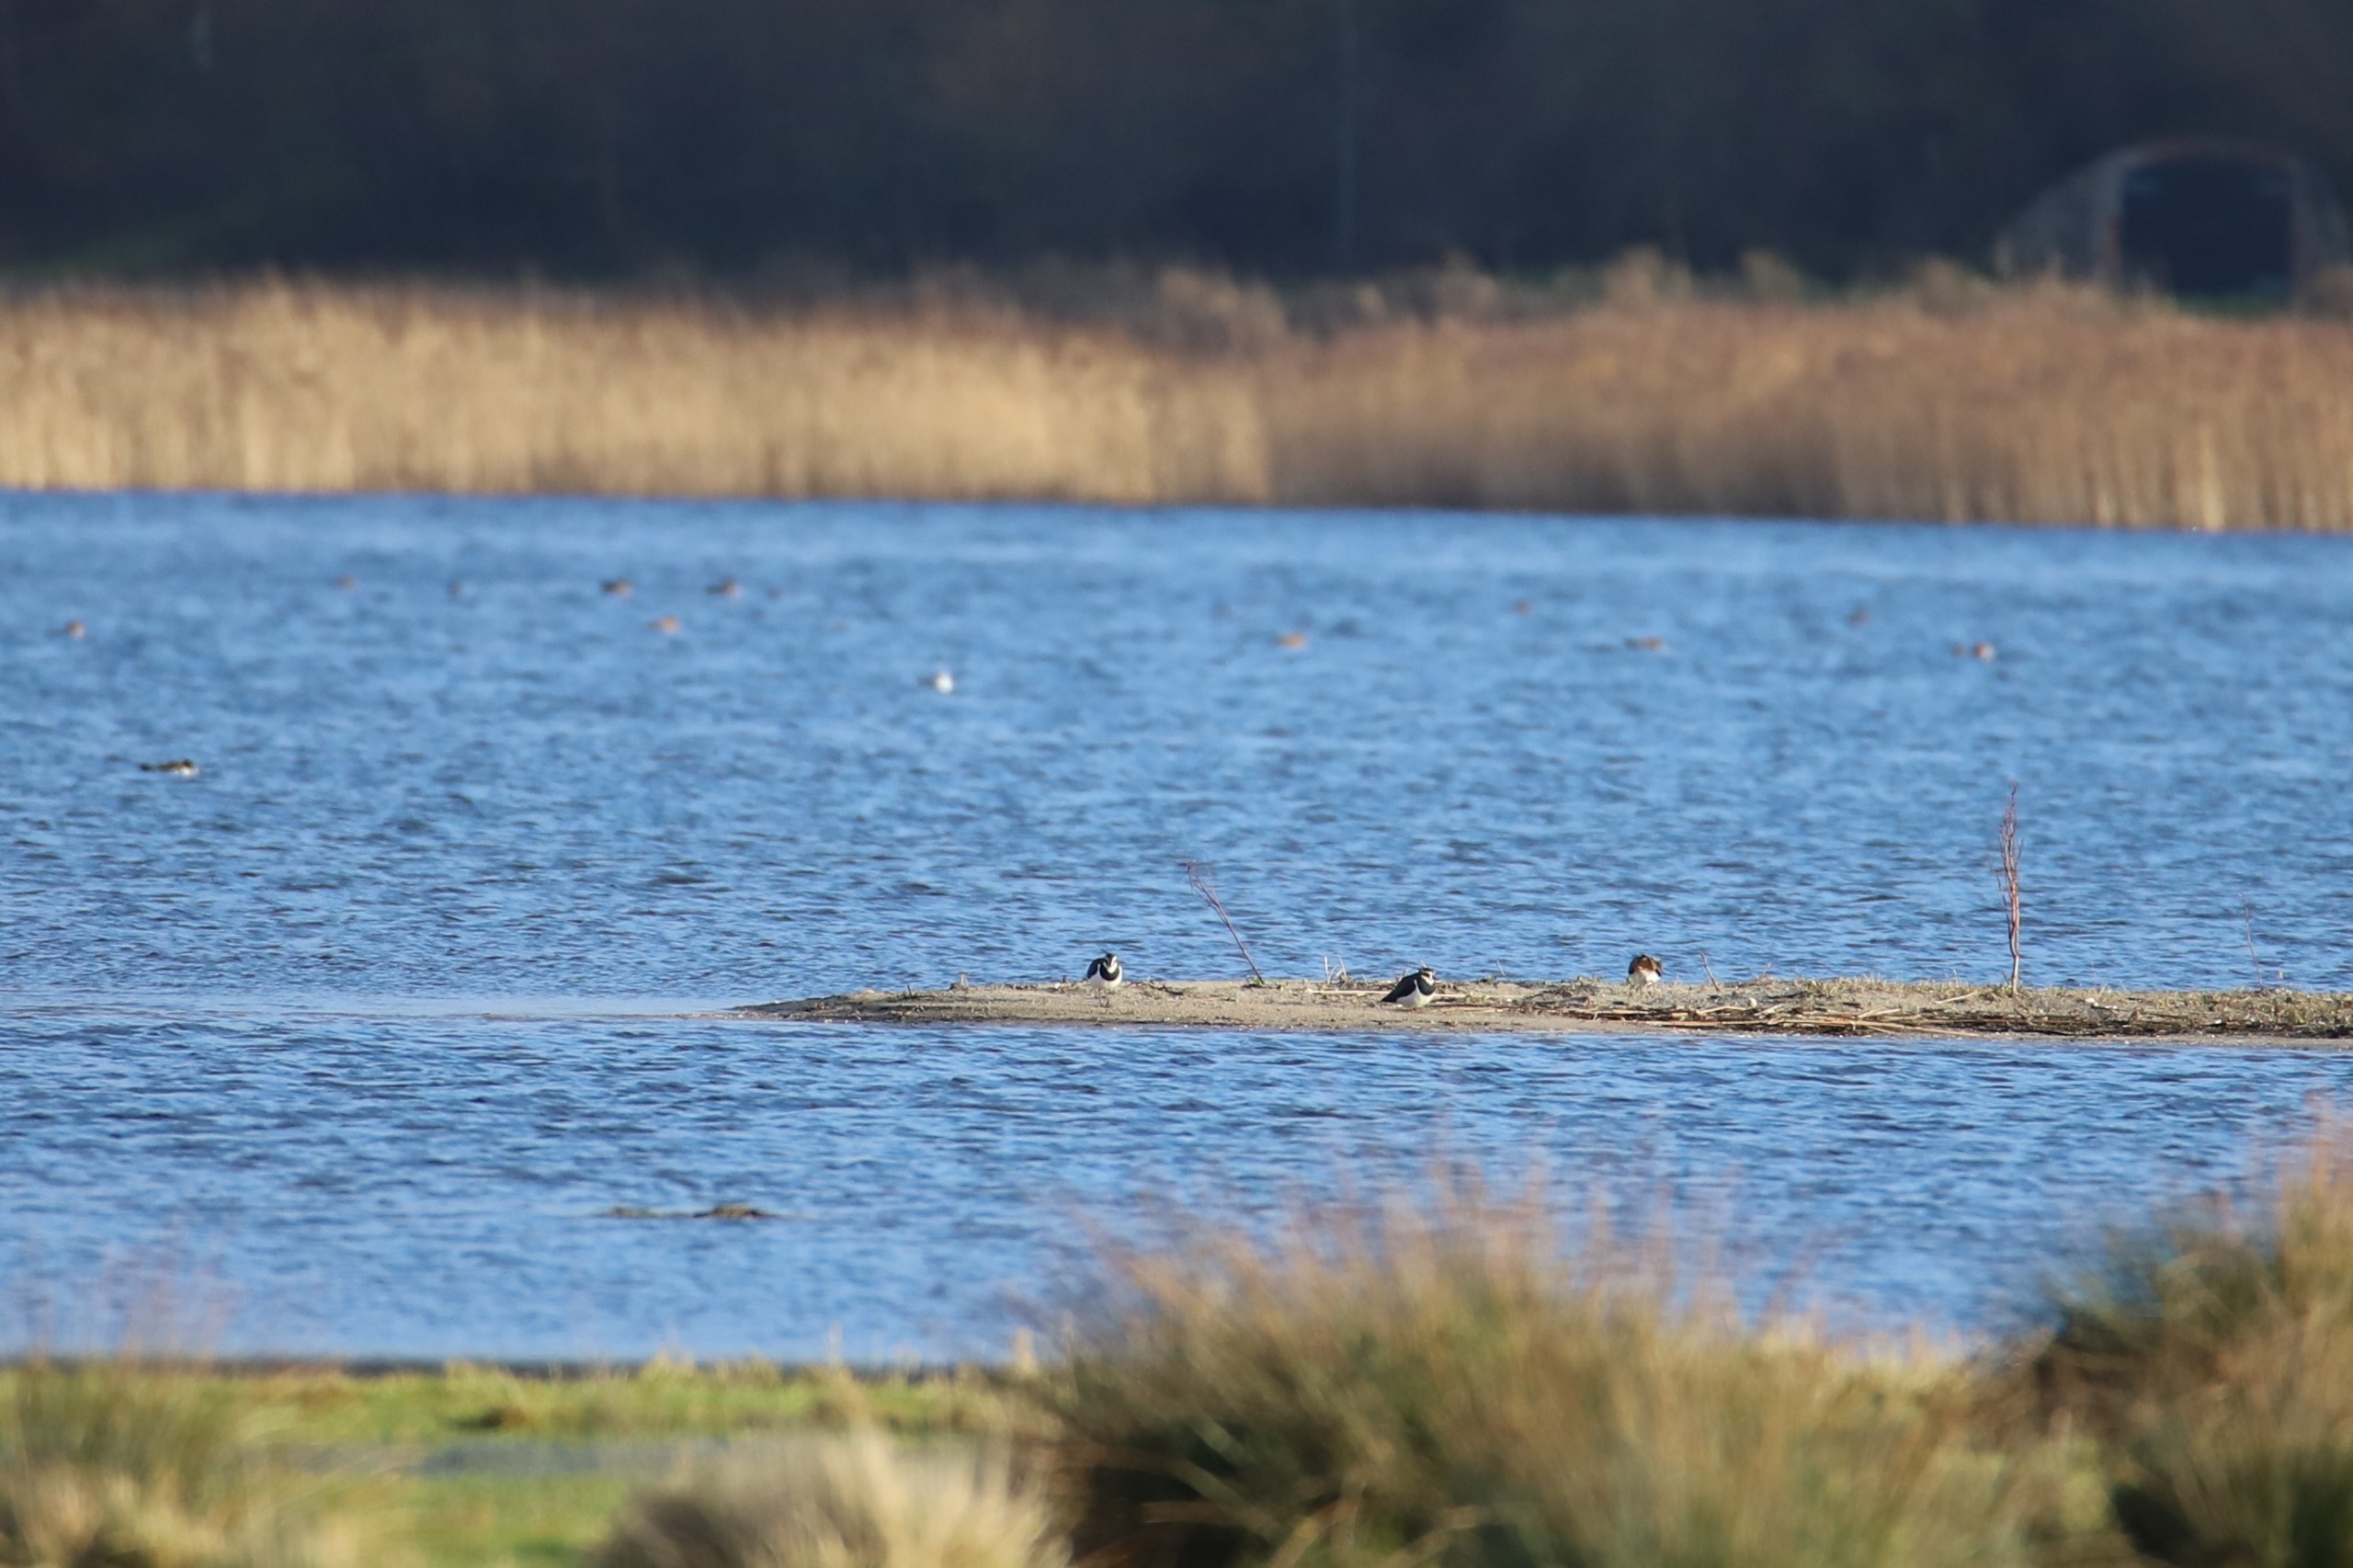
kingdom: Animalia
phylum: Chordata
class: Aves
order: Charadriiformes
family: Charadriidae
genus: Vanellus
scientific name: Vanellus vanellus
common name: Vibe
